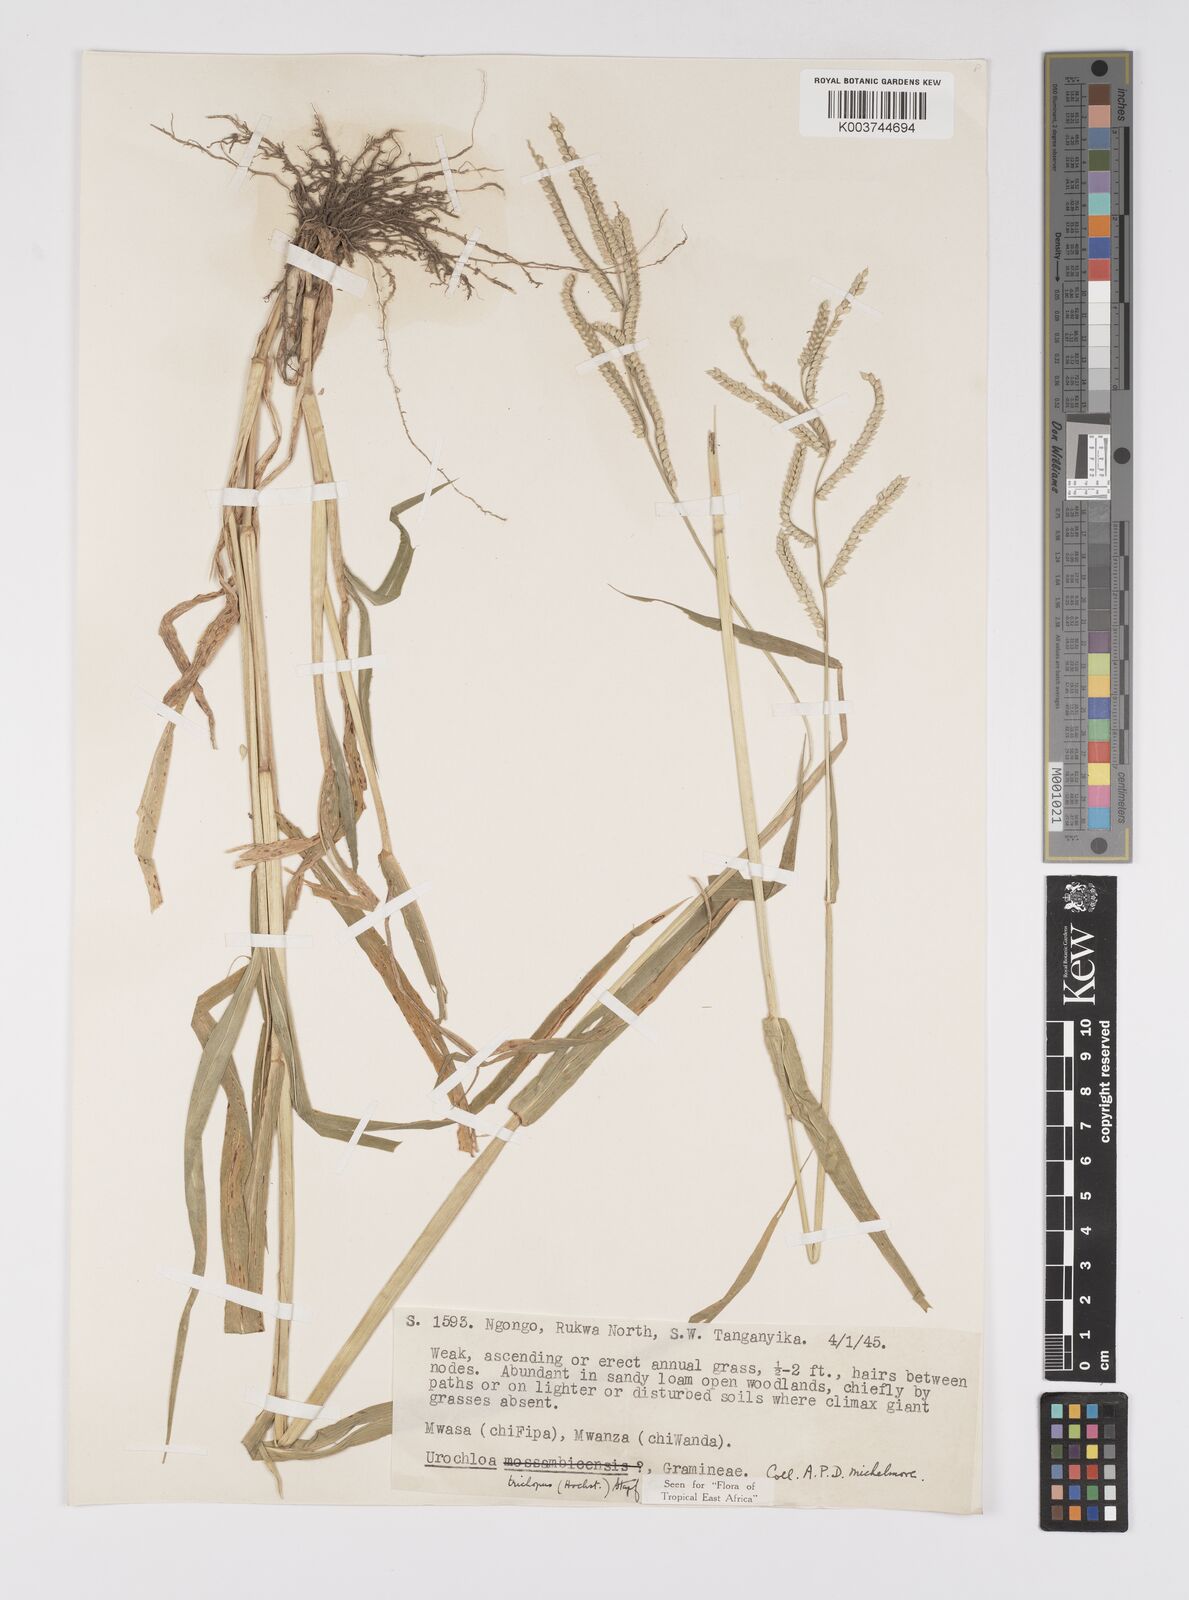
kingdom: Plantae
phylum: Tracheophyta
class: Liliopsida
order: Poales
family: Poaceae
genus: Urochloa
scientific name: Urochloa trichopus
